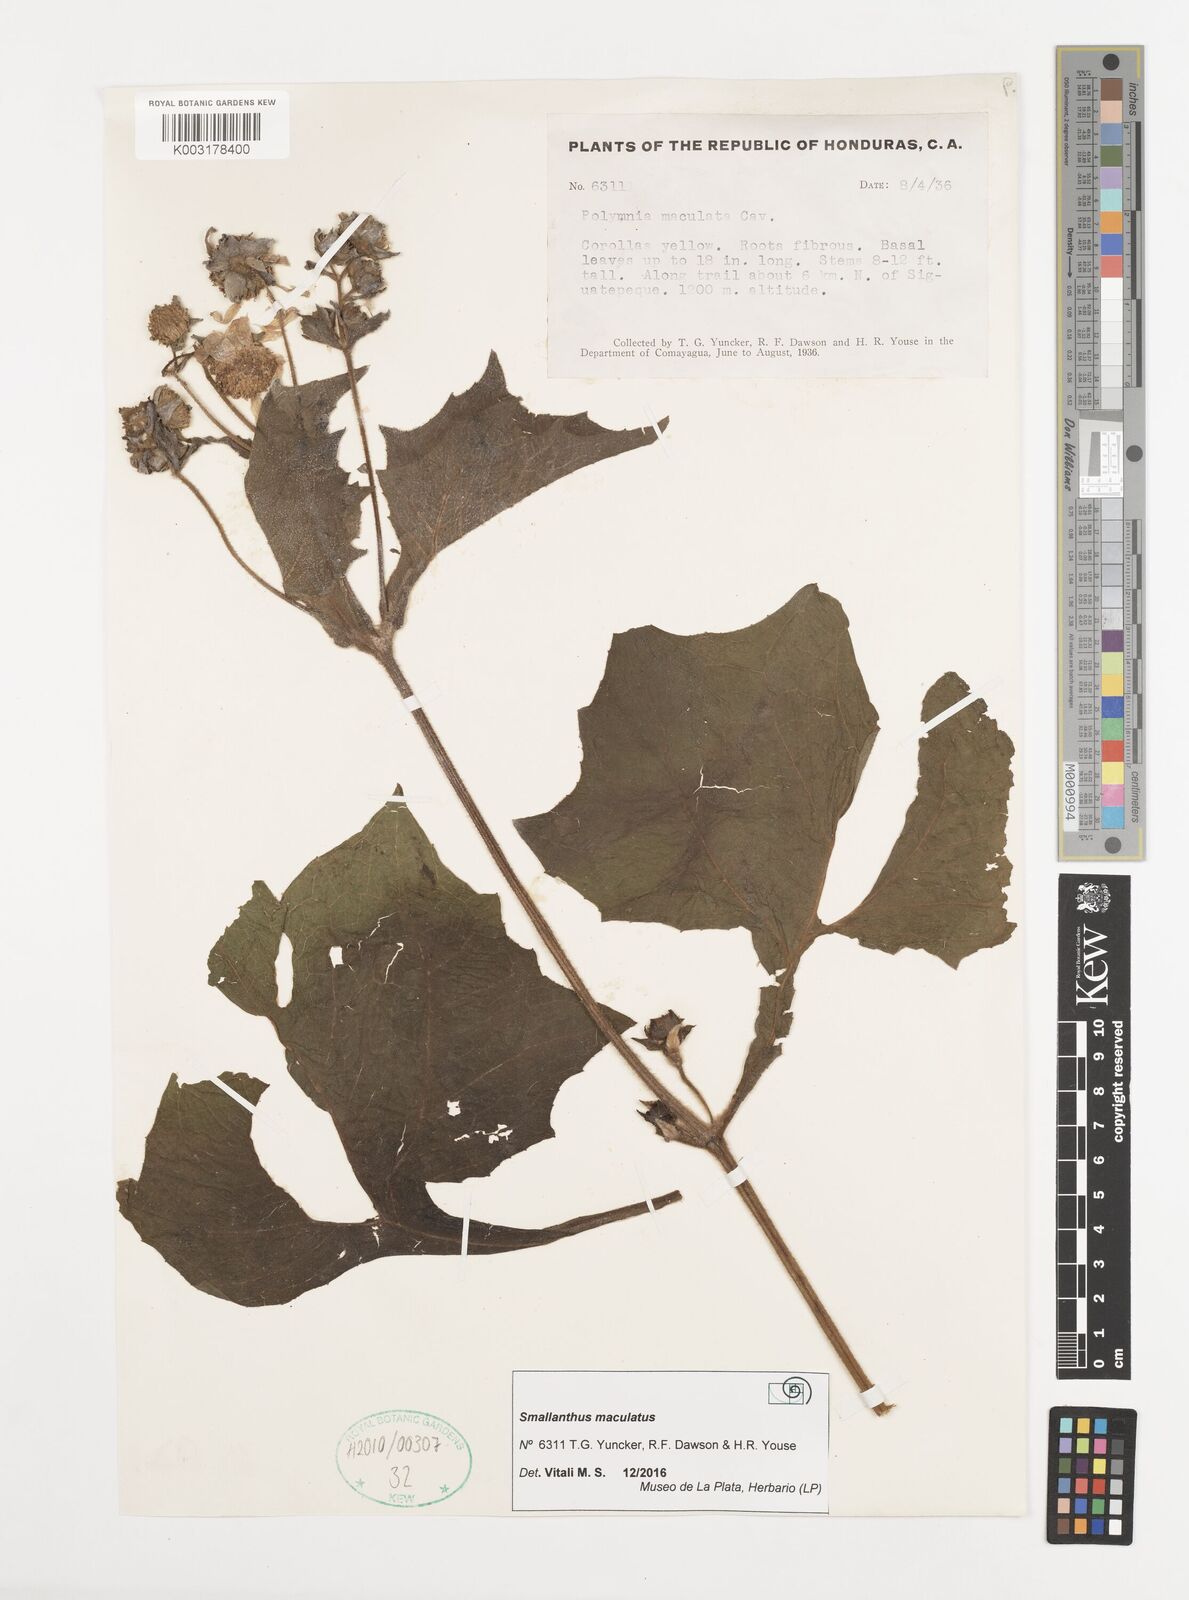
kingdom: Plantae
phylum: Tracheophyta
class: Magnoliopsida
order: Asterales
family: Asteraceae
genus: Smallanthus
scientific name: Smallanthus maculatus
